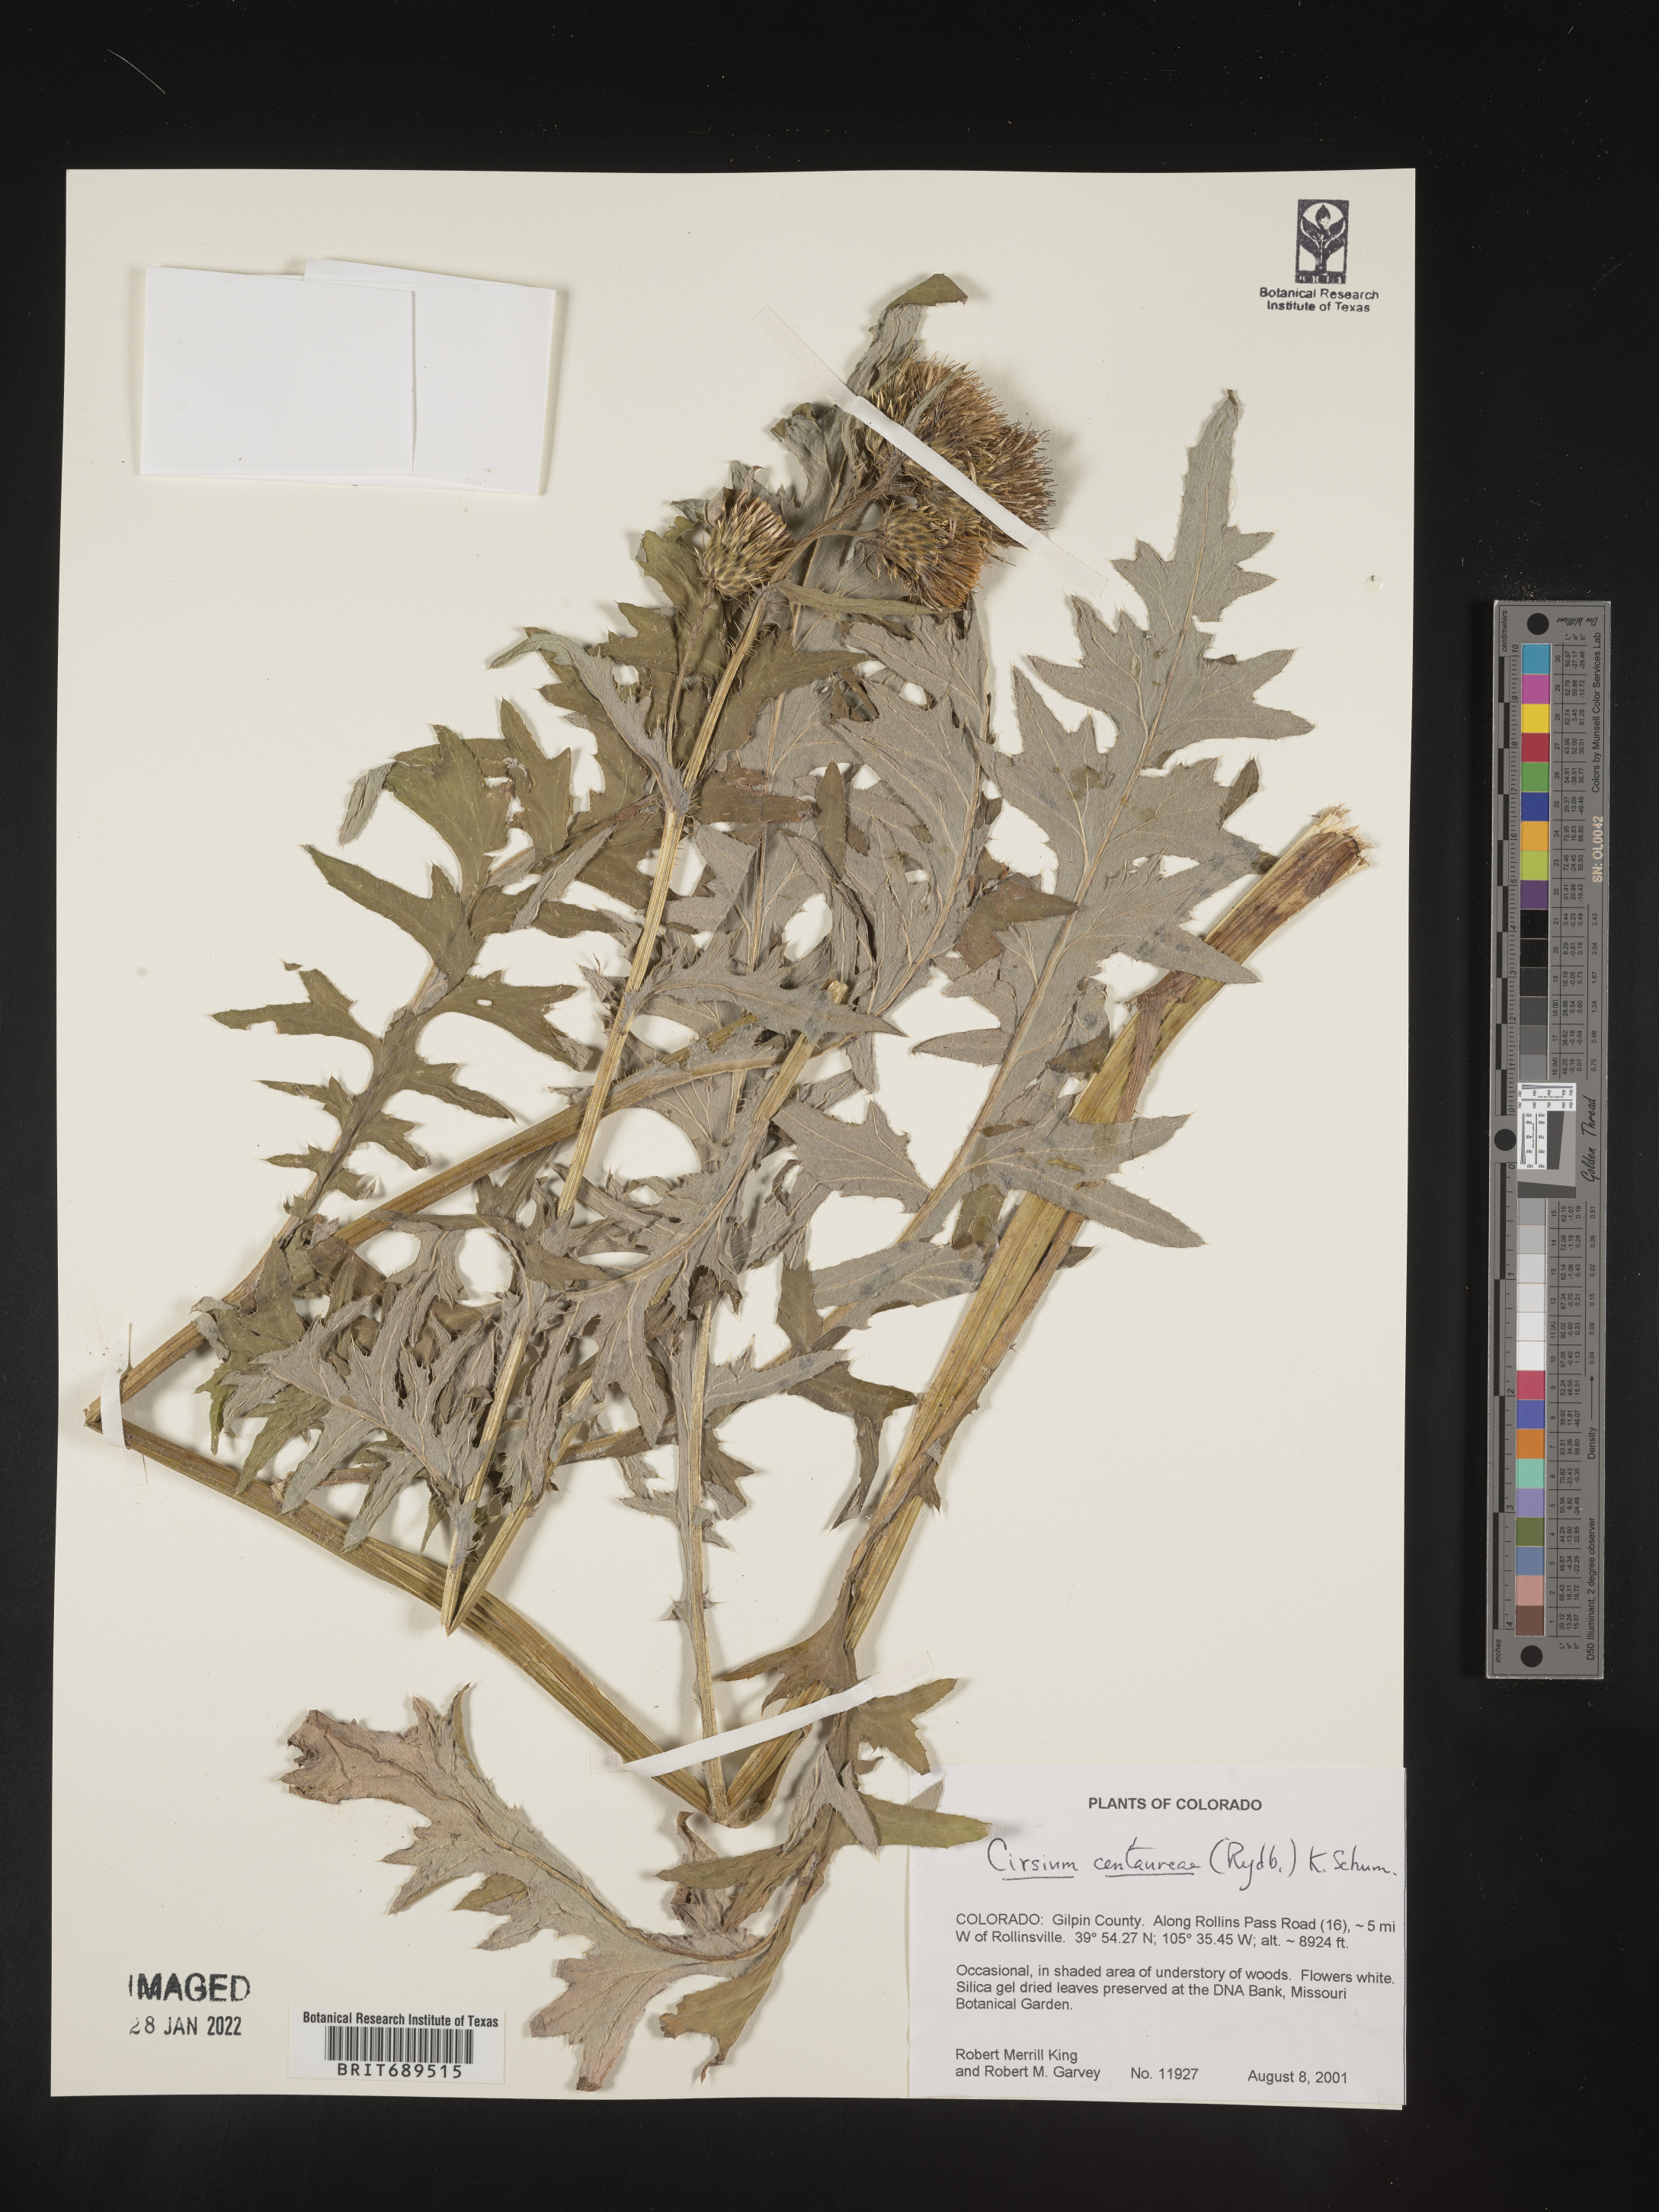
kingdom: Plantae
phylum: Tracheophyta
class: Magnoliopsida
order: Asterales
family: Asteraceae
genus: Cirsium
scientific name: Cirsium centaureae
